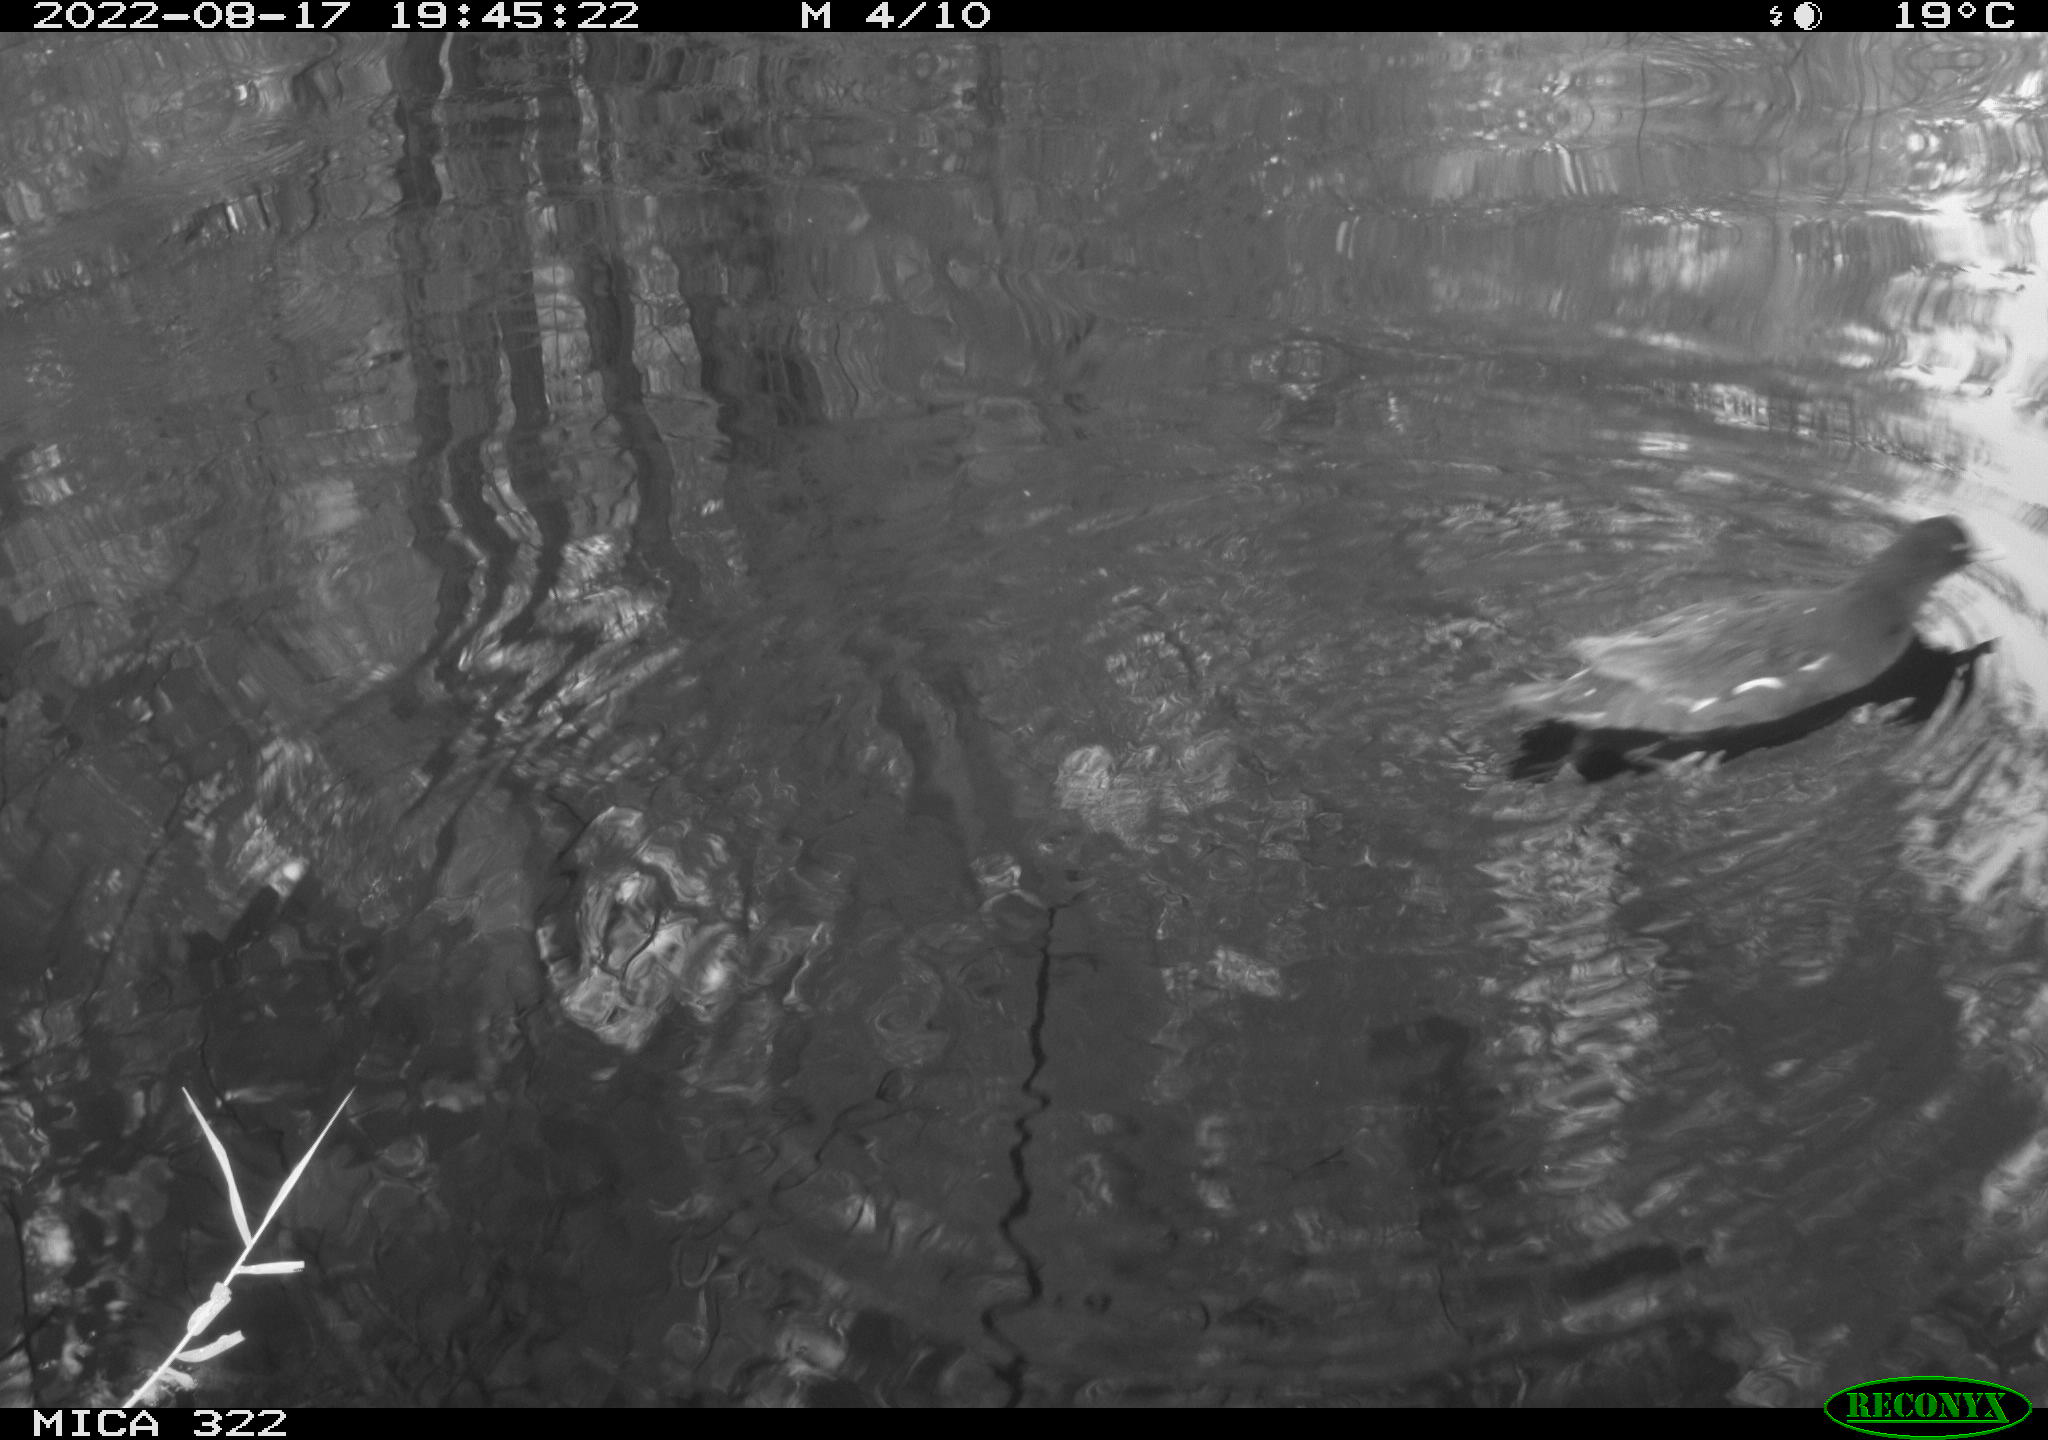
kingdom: Animalia
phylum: Chordata
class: Aves
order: Gruiformes
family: Rallidae
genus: Gallinula
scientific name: Gallinula chloropus
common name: Common moorhen
